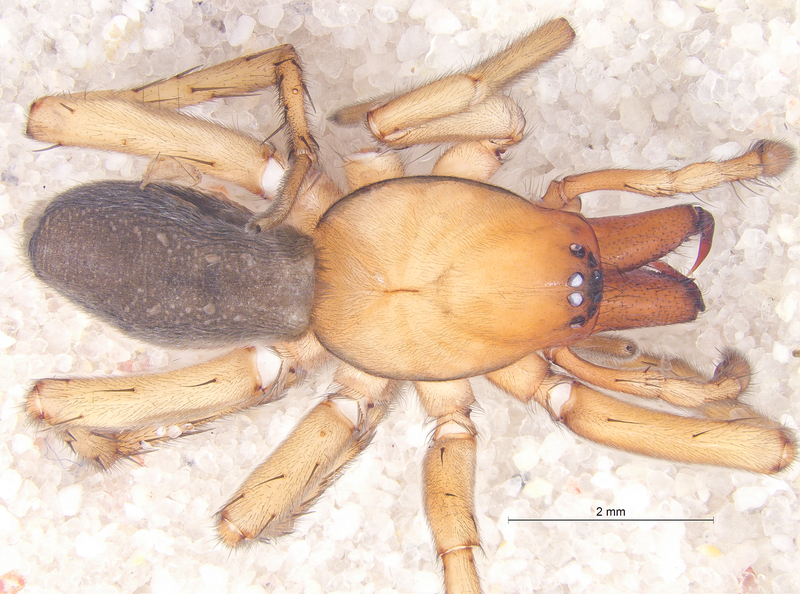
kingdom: Animalia
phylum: Arthropoda
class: Arachnida
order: Araneae
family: Gnaphosidae
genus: Drassodes
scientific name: Drassodes cupreus
